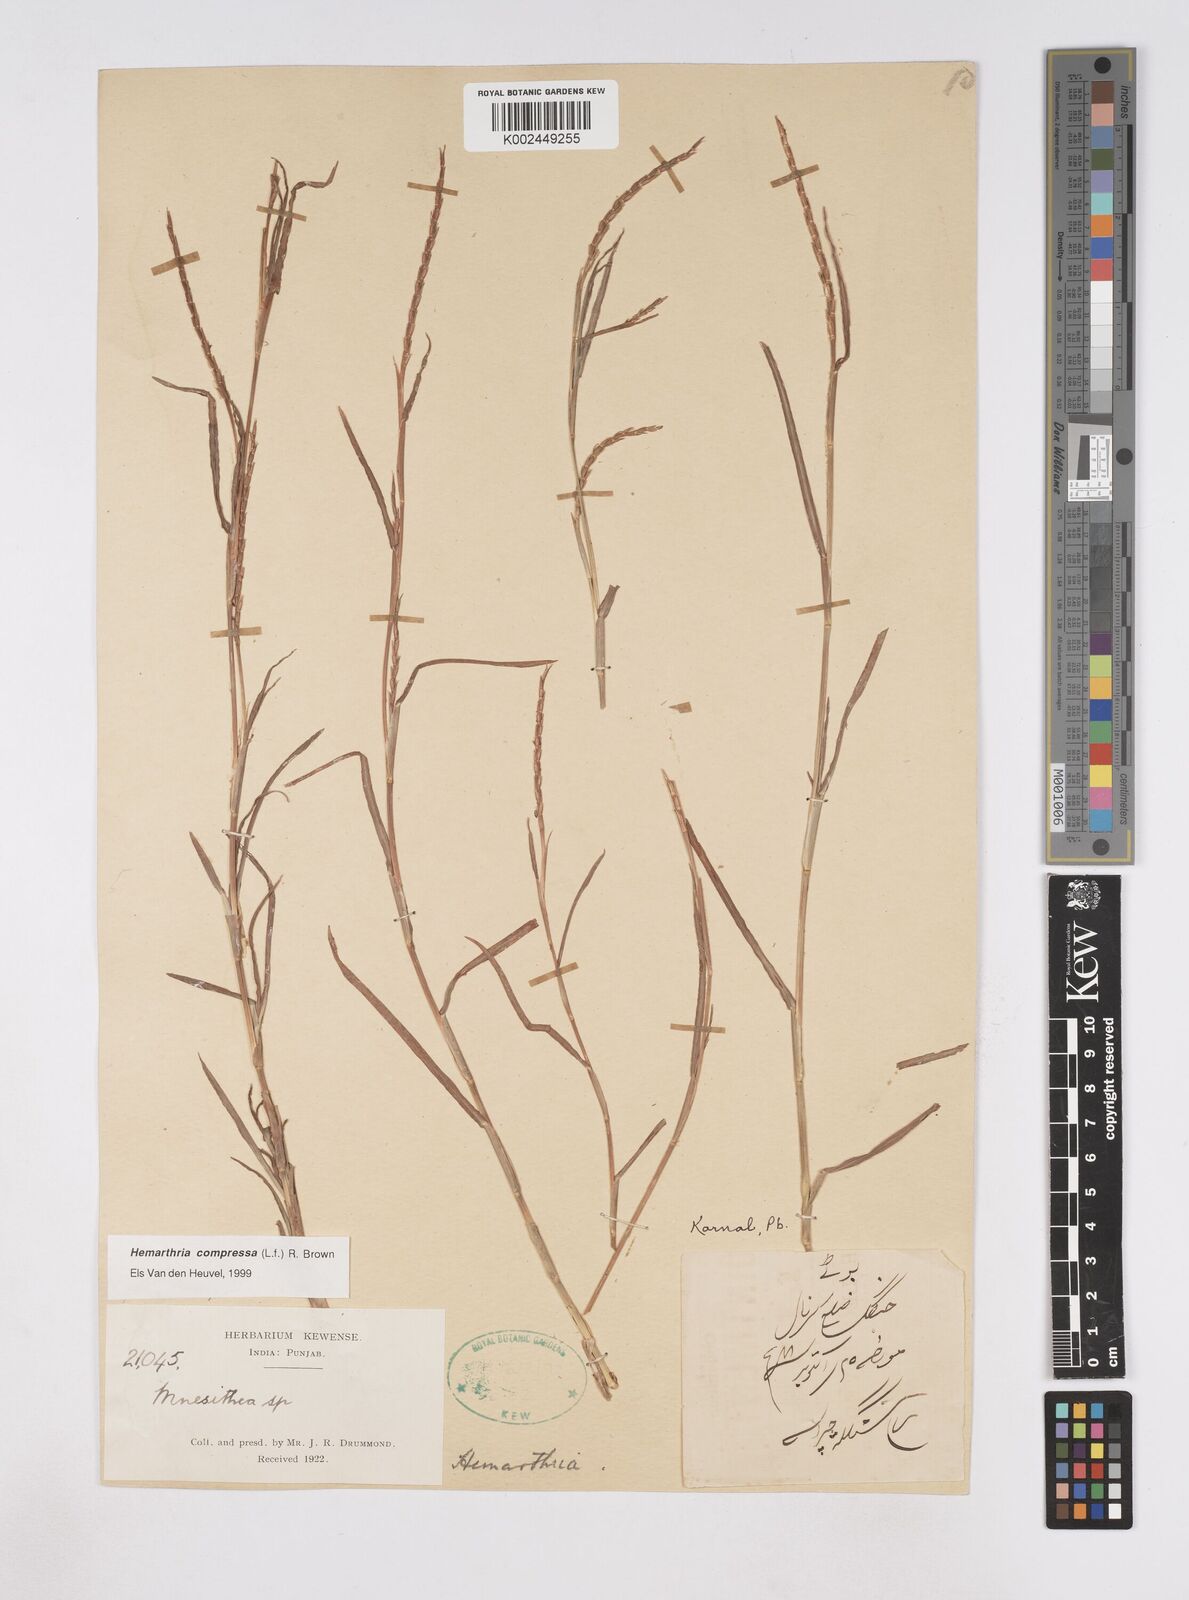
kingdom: Plantae
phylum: Tracheophyta
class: Liliopsida
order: Poales
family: Poaceae
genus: Hemarthria
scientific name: Hemarthria compressa
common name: Whip grass
